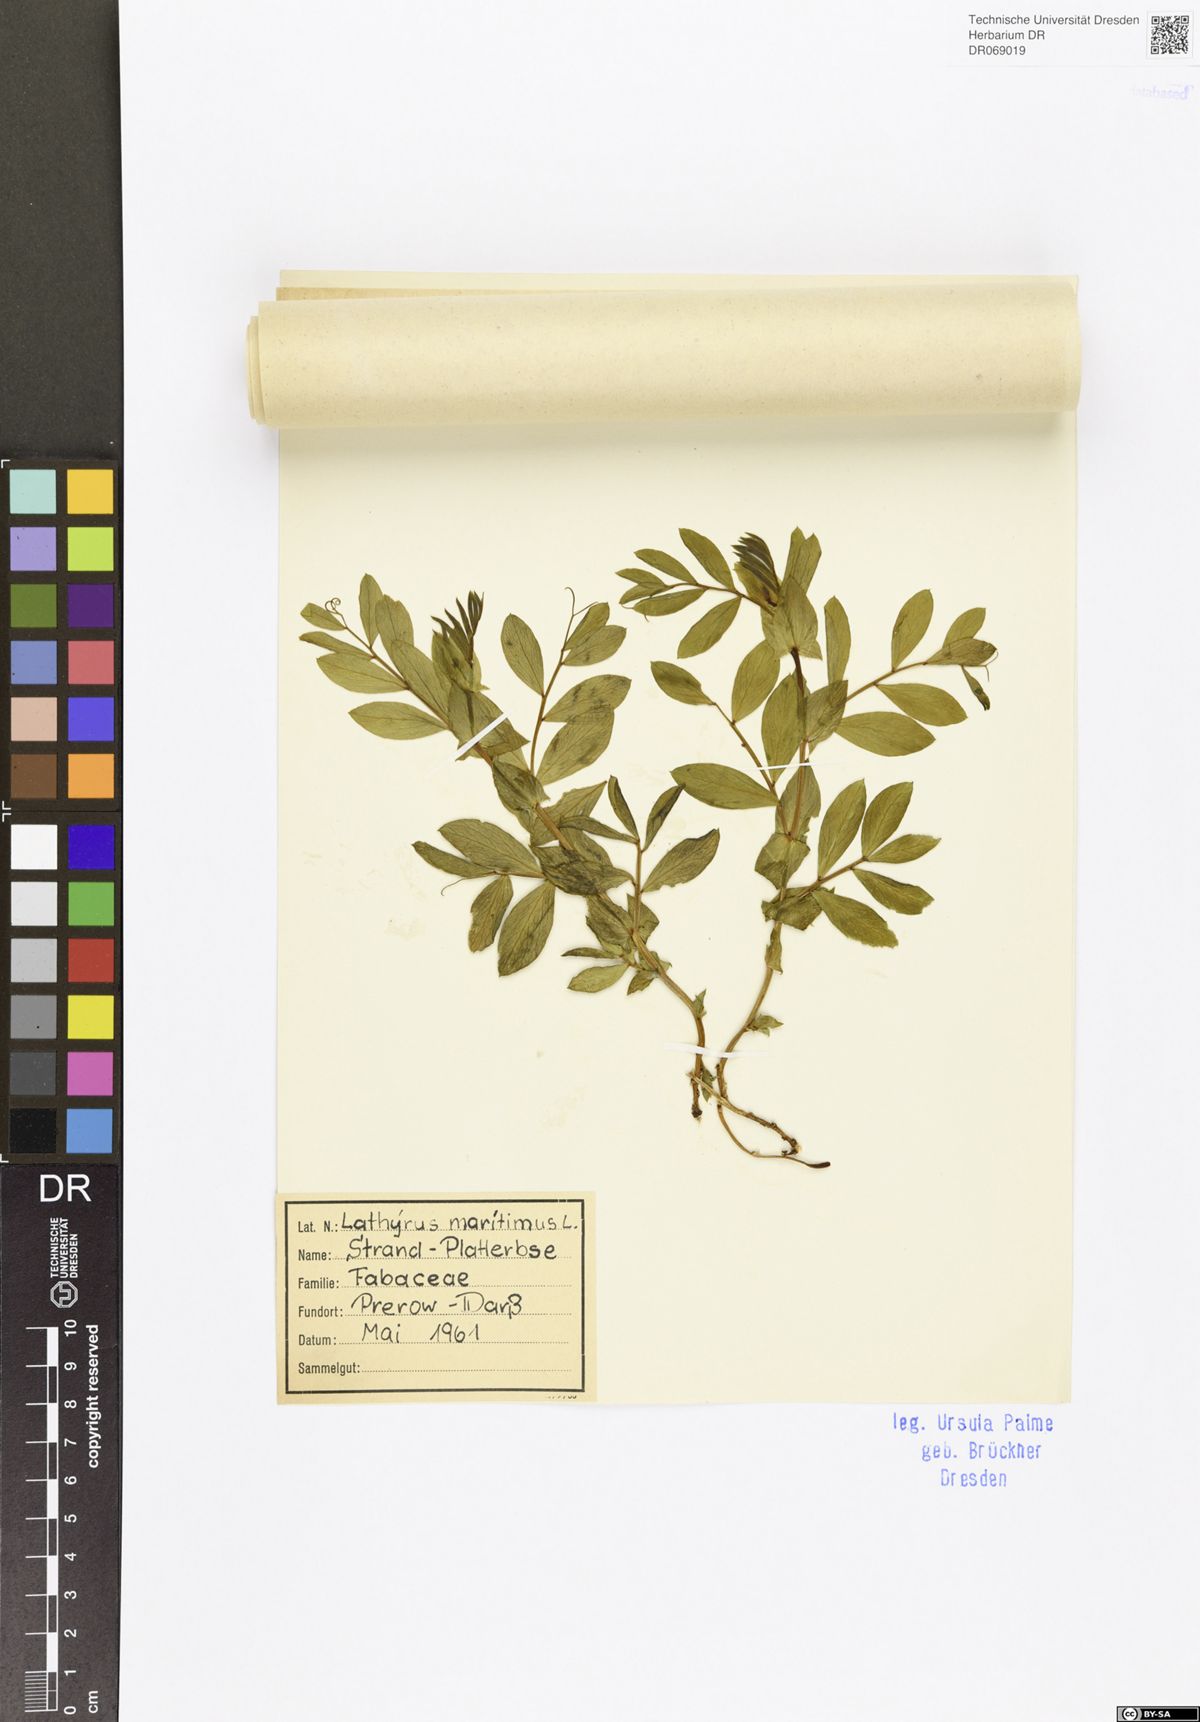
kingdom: Plantae
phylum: Tracheophyta
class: Magnoliopsida
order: Fabales
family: Fabaceae
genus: Lathyrus
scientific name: Lathyrus japonicus
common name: Sea pea
